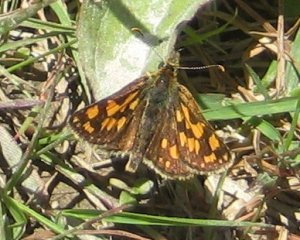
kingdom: Animalia
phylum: Arthropoda
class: Insecta
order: Lepidoptera
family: Hesperiidae
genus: Carterocephalus
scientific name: Carterocephalus palaemon
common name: Chequered Skipper
